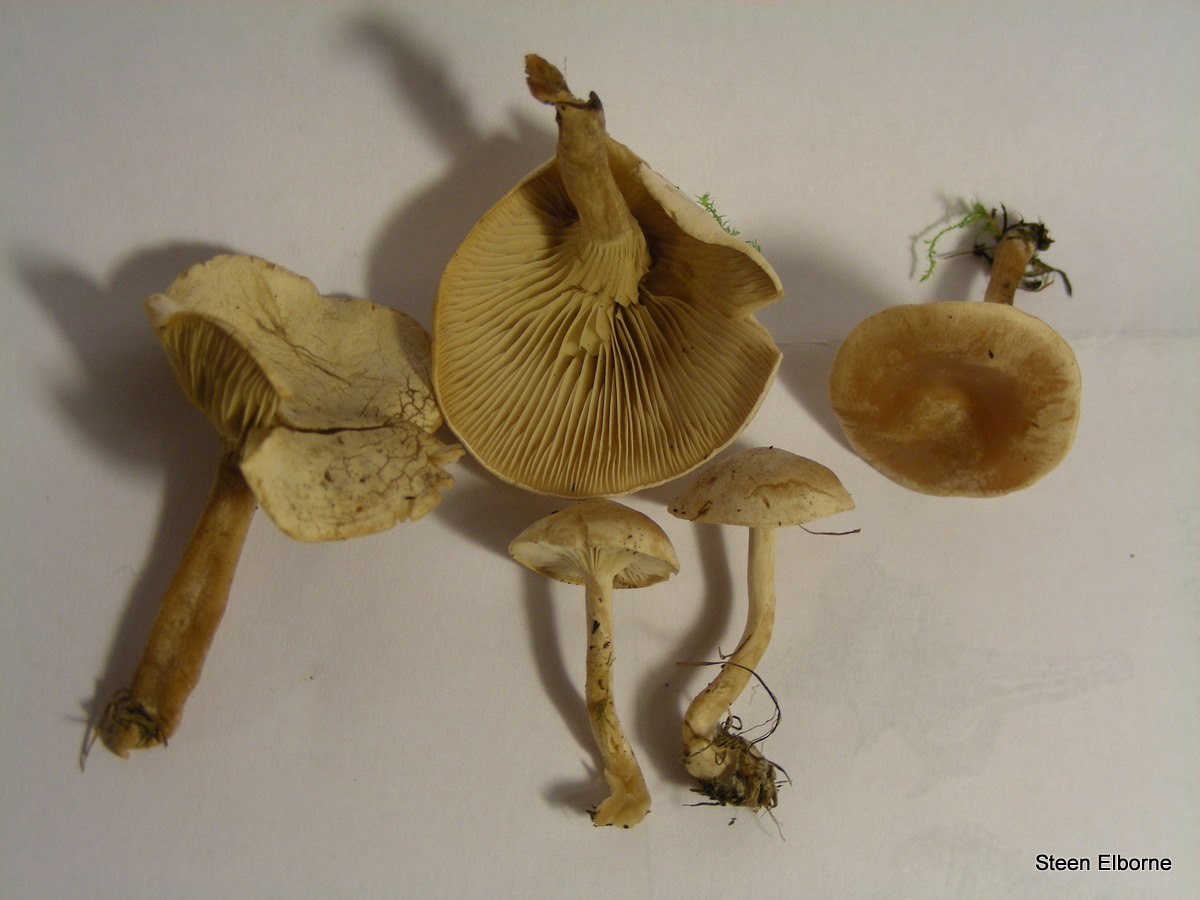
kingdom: Fungi
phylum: Basidiomycota
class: Agaricomycetes
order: Agaricales
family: Tricholomataceae
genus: Clitocybe
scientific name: Clitocybe rivulosa
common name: eng-tragthat
